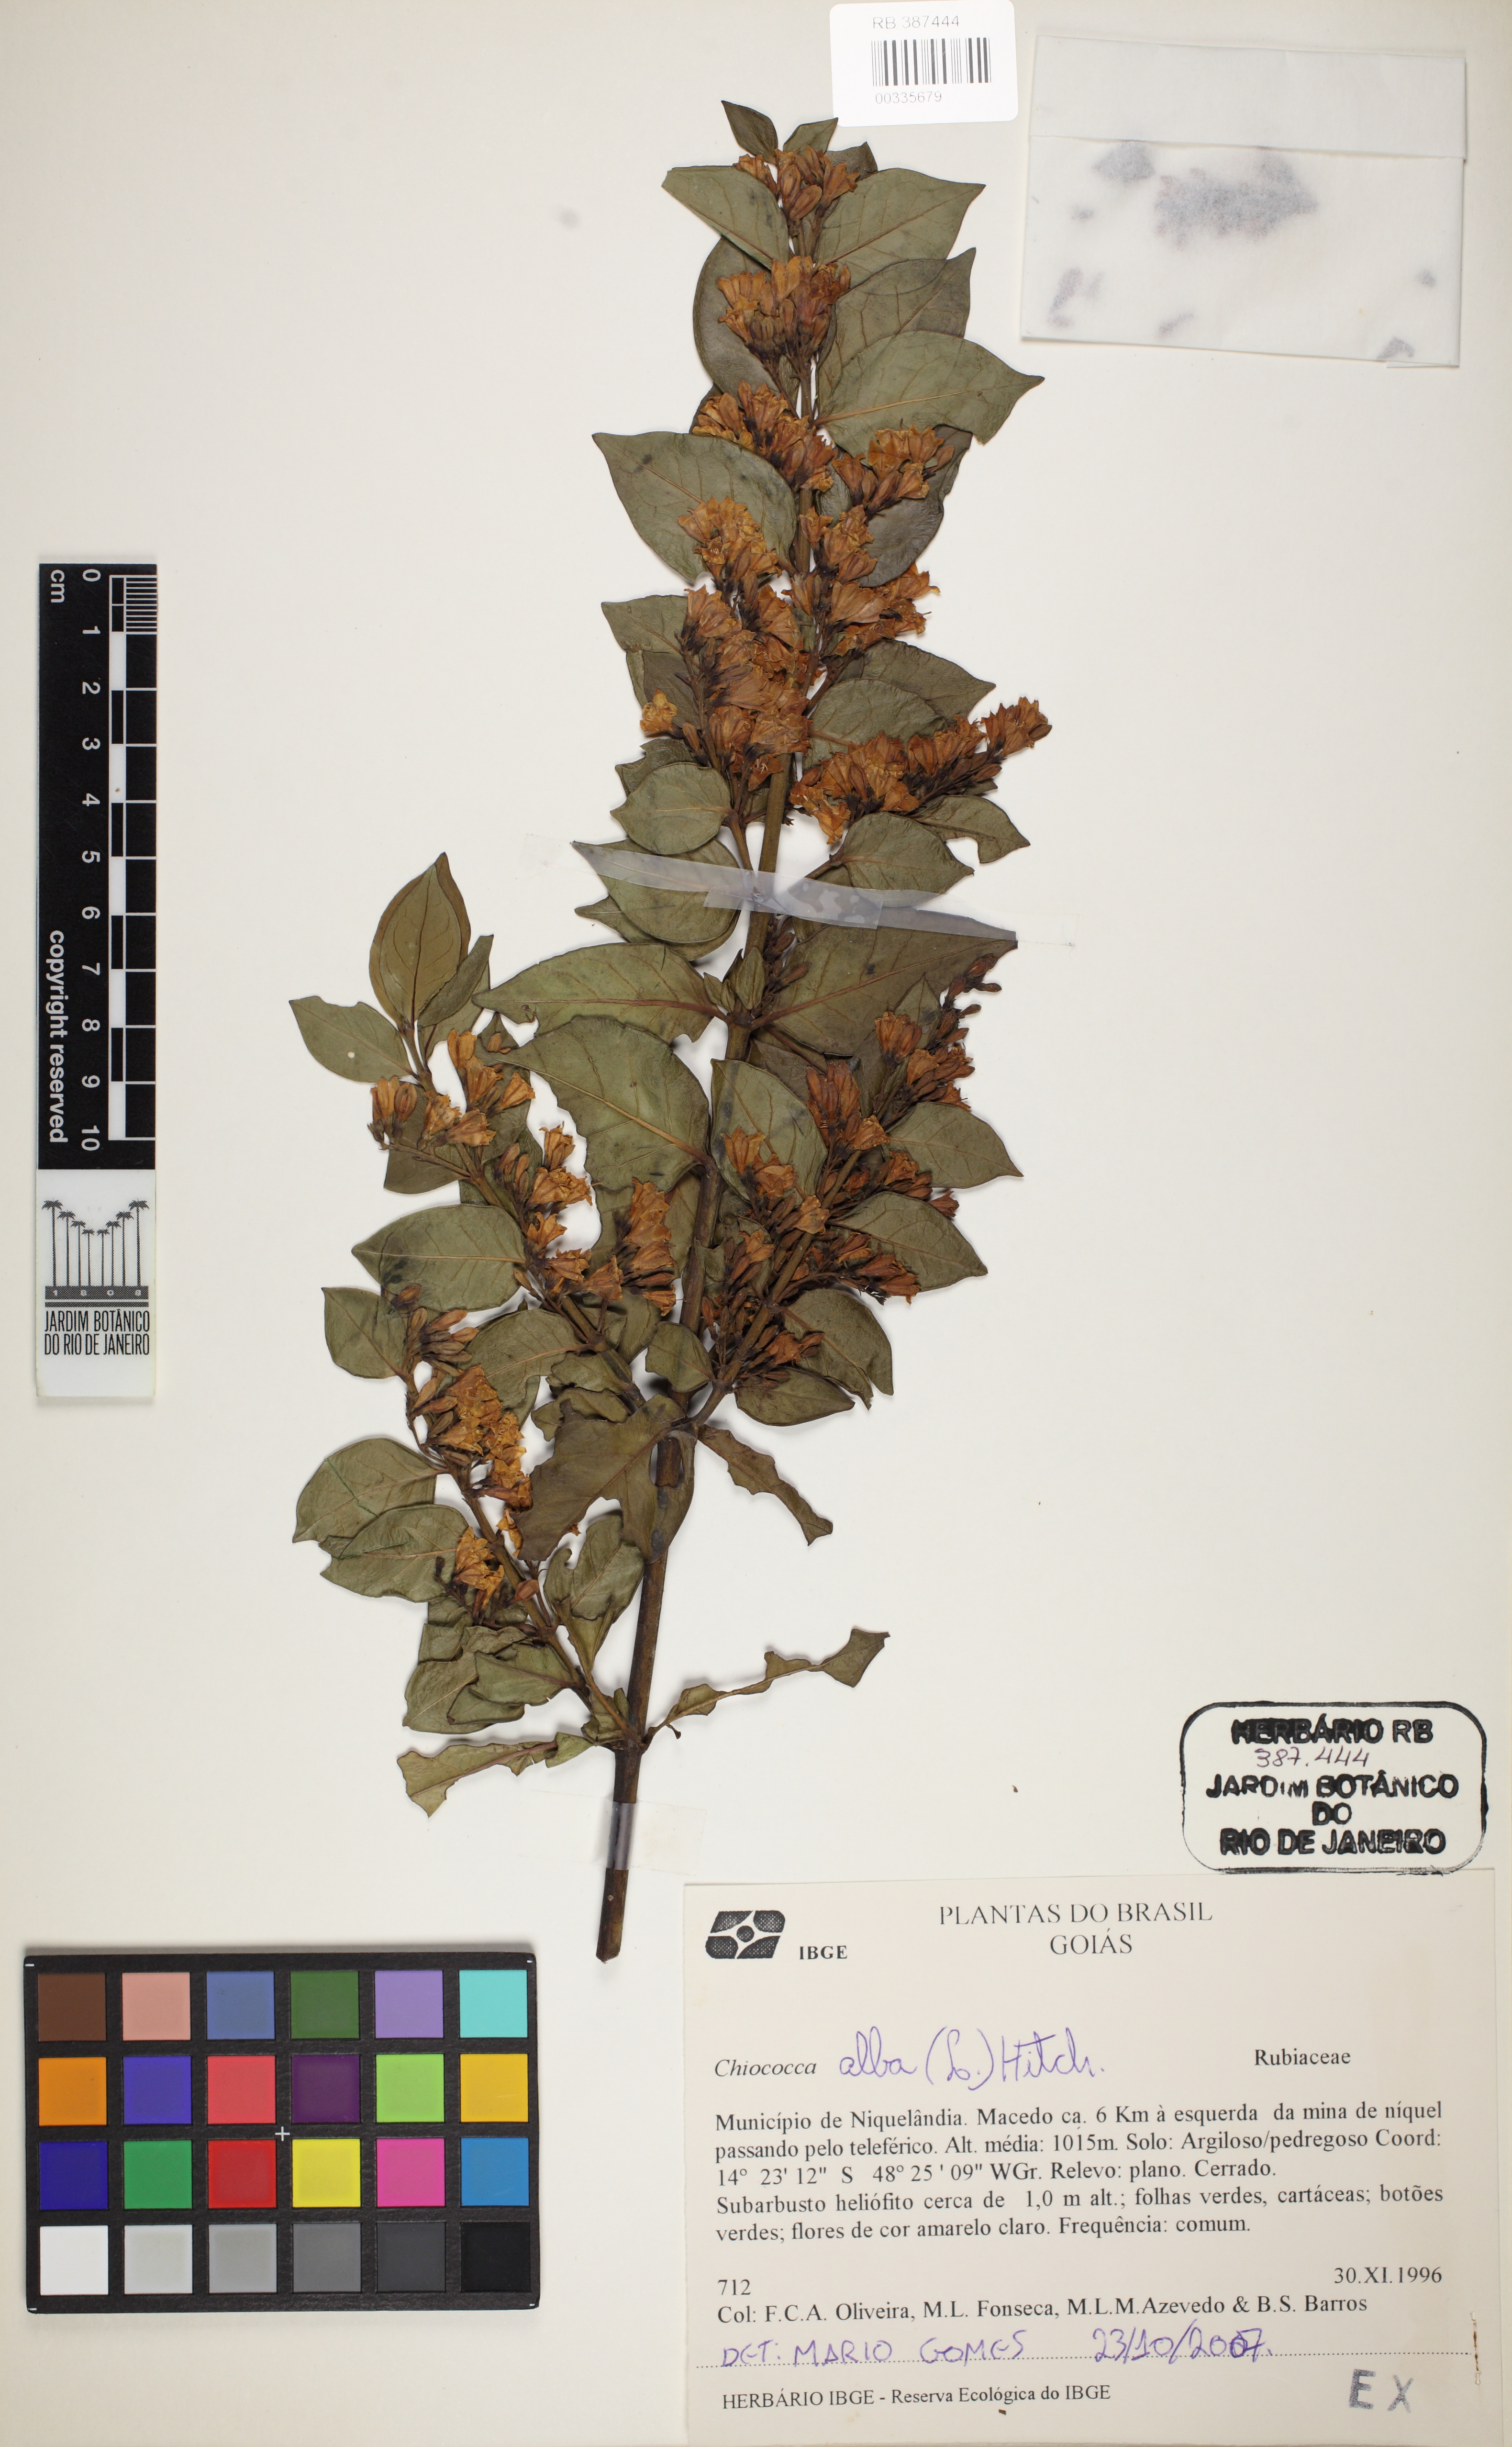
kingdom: Plantae
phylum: Tracheophyta
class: Magnoliopsida
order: Gentianales
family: Rubiaceae
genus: Chiococca
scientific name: Chiococca alba
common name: Snowberry
